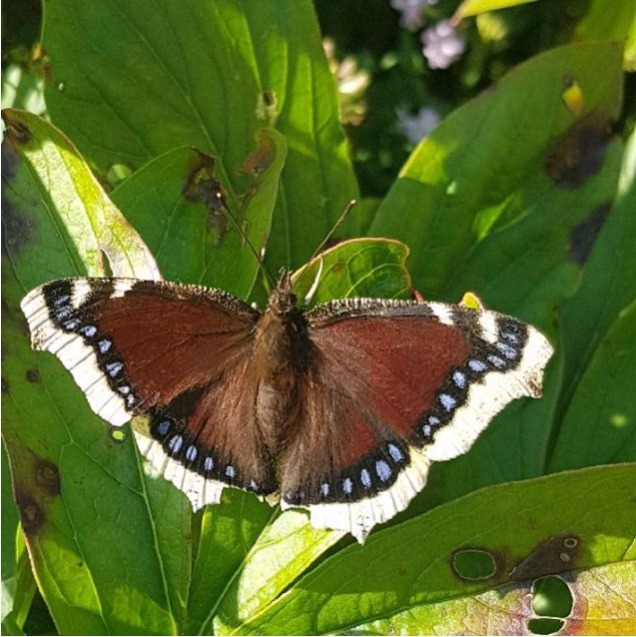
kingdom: Animalia
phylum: Arthropoda
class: Insecta
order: Lepidoptera
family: Nymphalidae
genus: Nymphalis
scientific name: Nymphalis antiopa
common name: Sørgekåbe
